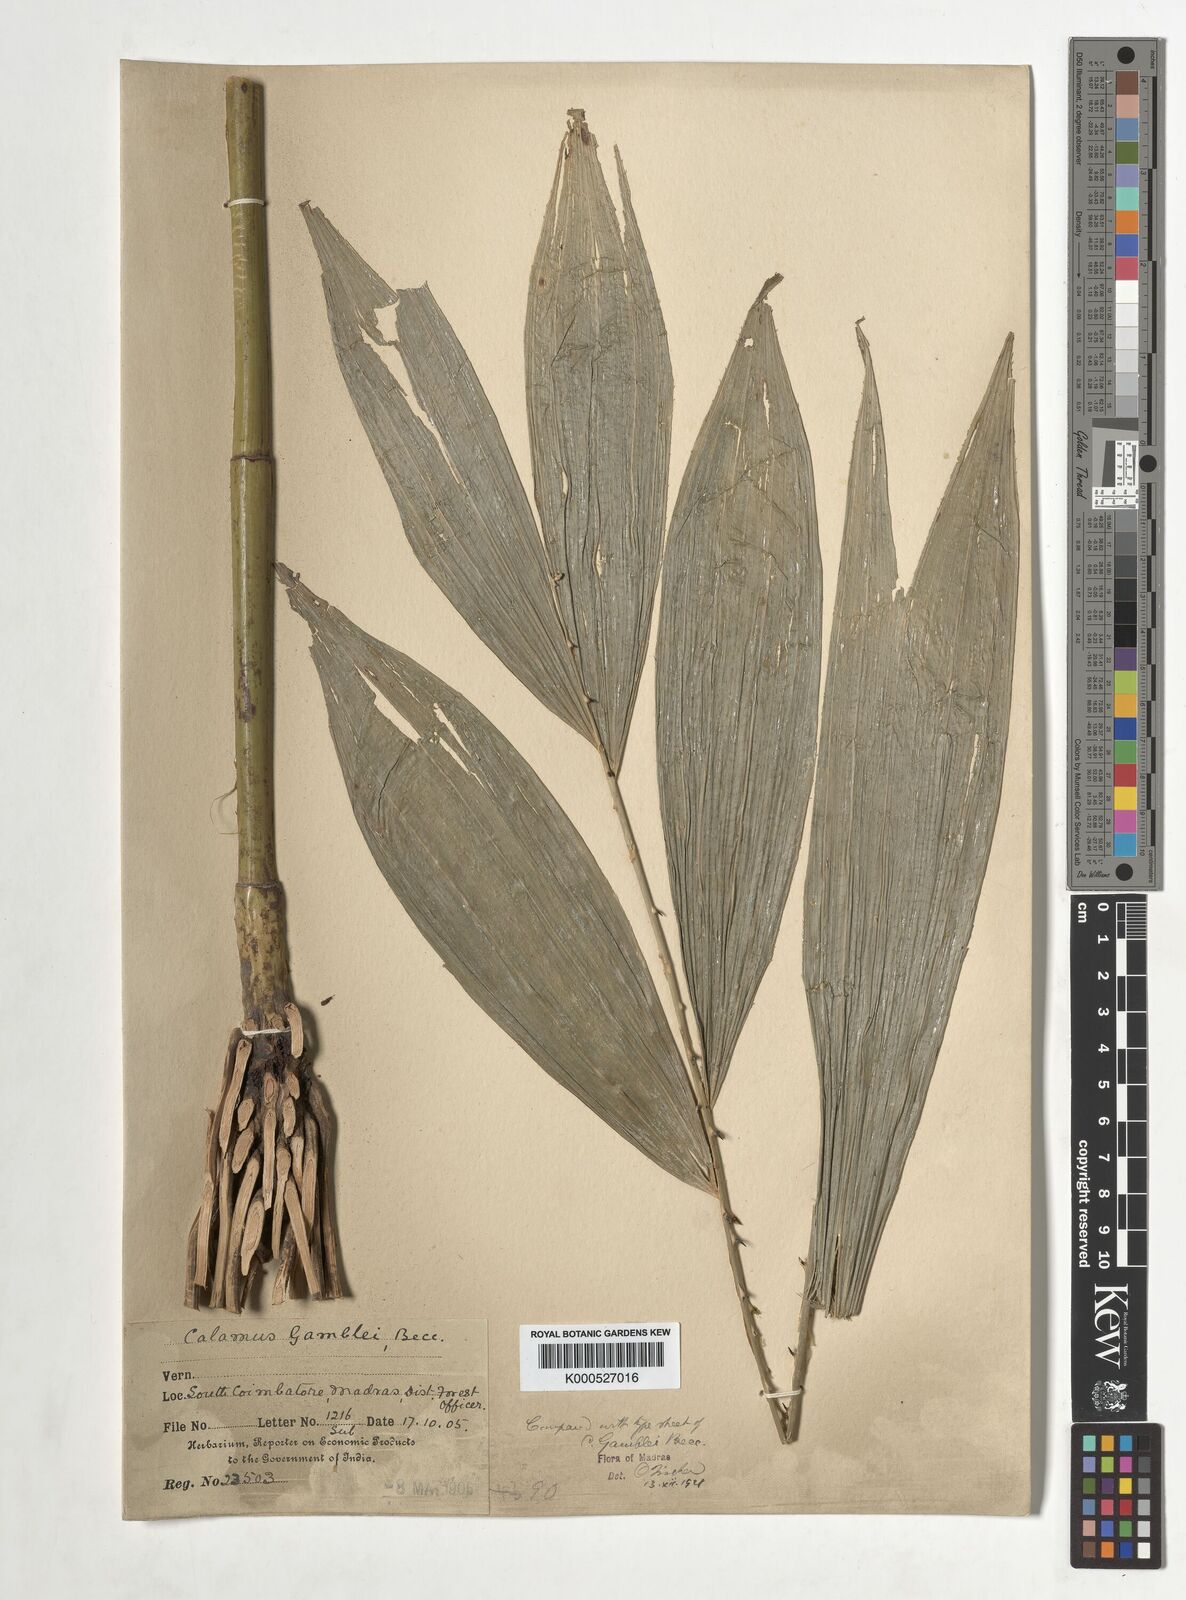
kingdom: Plantae
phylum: Tracheophyta
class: Liliopsida
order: Arecales
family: Arecaceae
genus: Calamus
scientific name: Calamus gamblei
